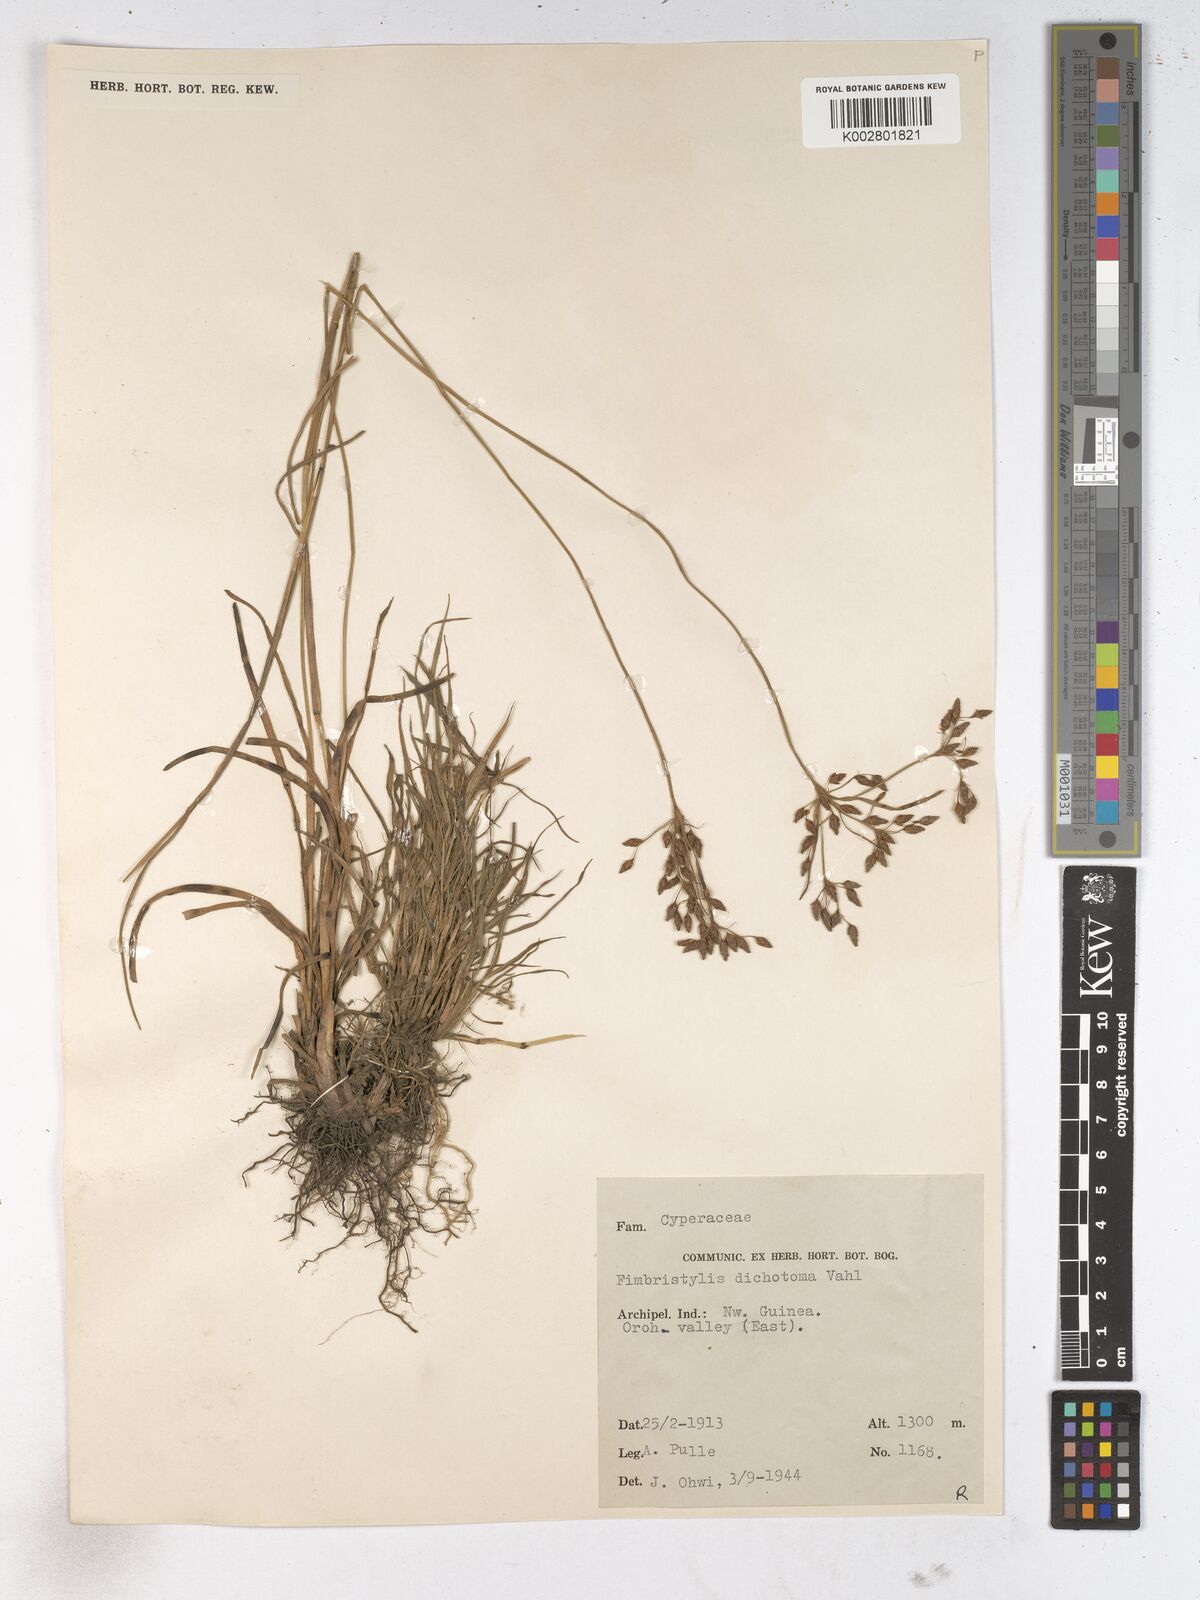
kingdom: Plantae
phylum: Tracheophyta
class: Liliopsida
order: Poales
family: Cyperaceae
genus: Fimbristylis
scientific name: Fimbristylis dichotoma
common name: Forked fimbry
